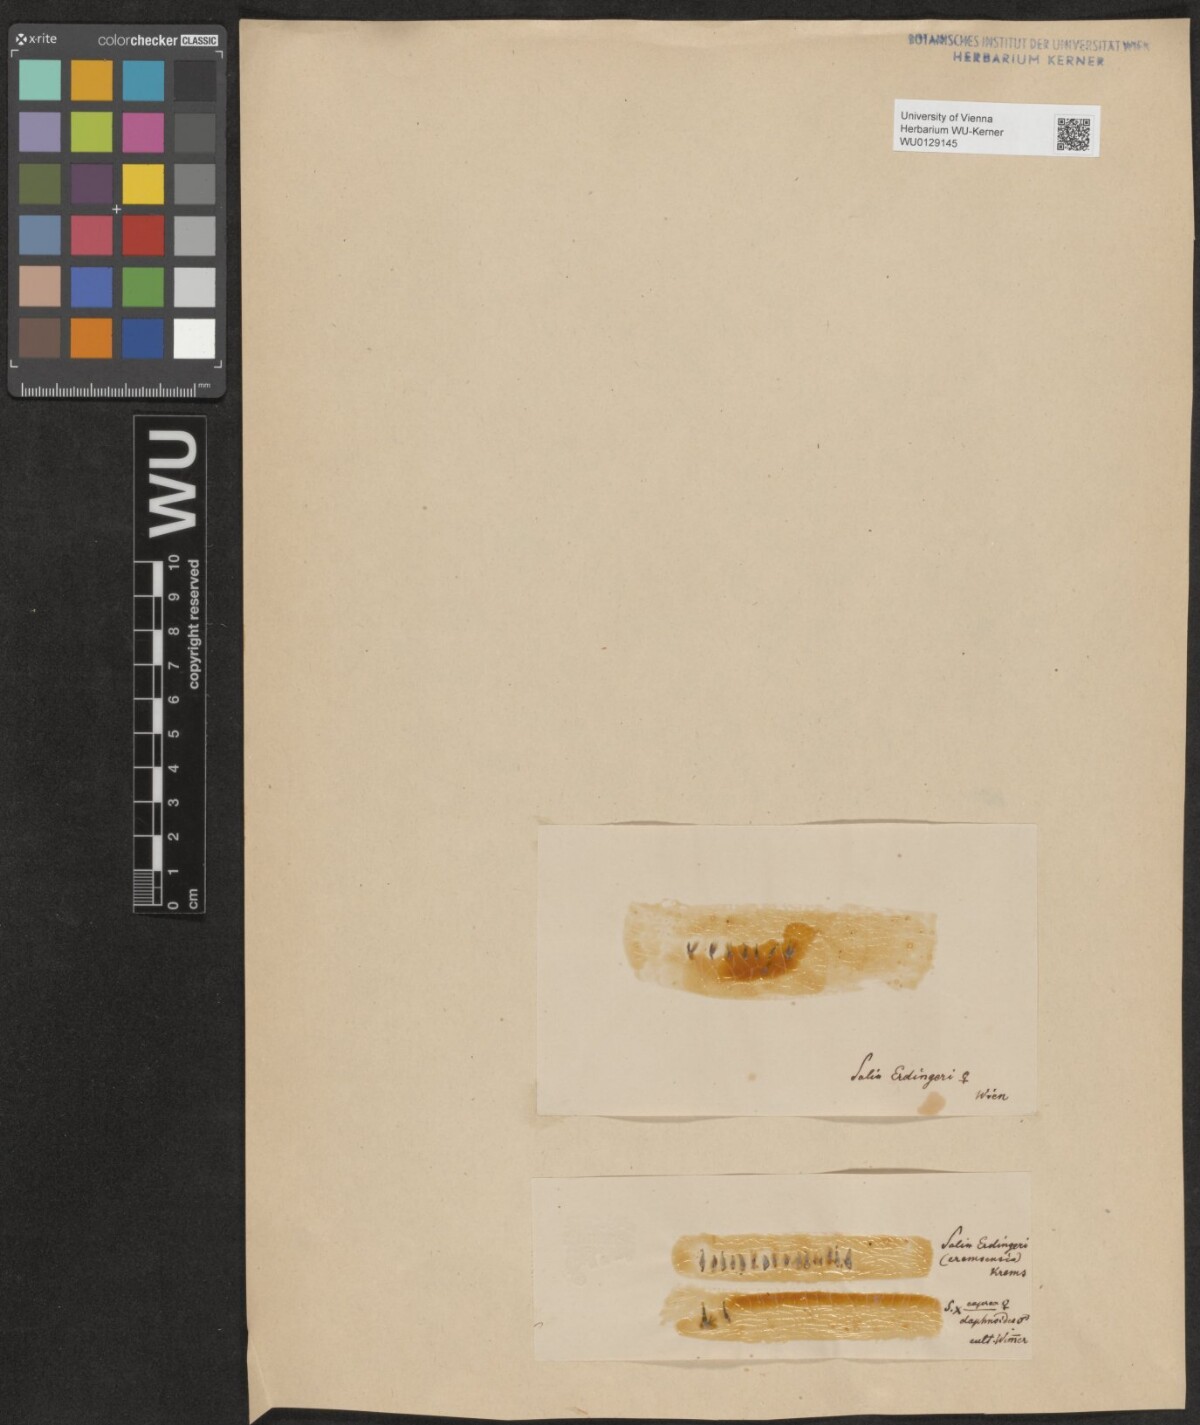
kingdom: Plantae
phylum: Tracheophyta
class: Magnoliopsida
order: Malpighiales
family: Salicaceae
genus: Salix
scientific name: Salix erdingeri
